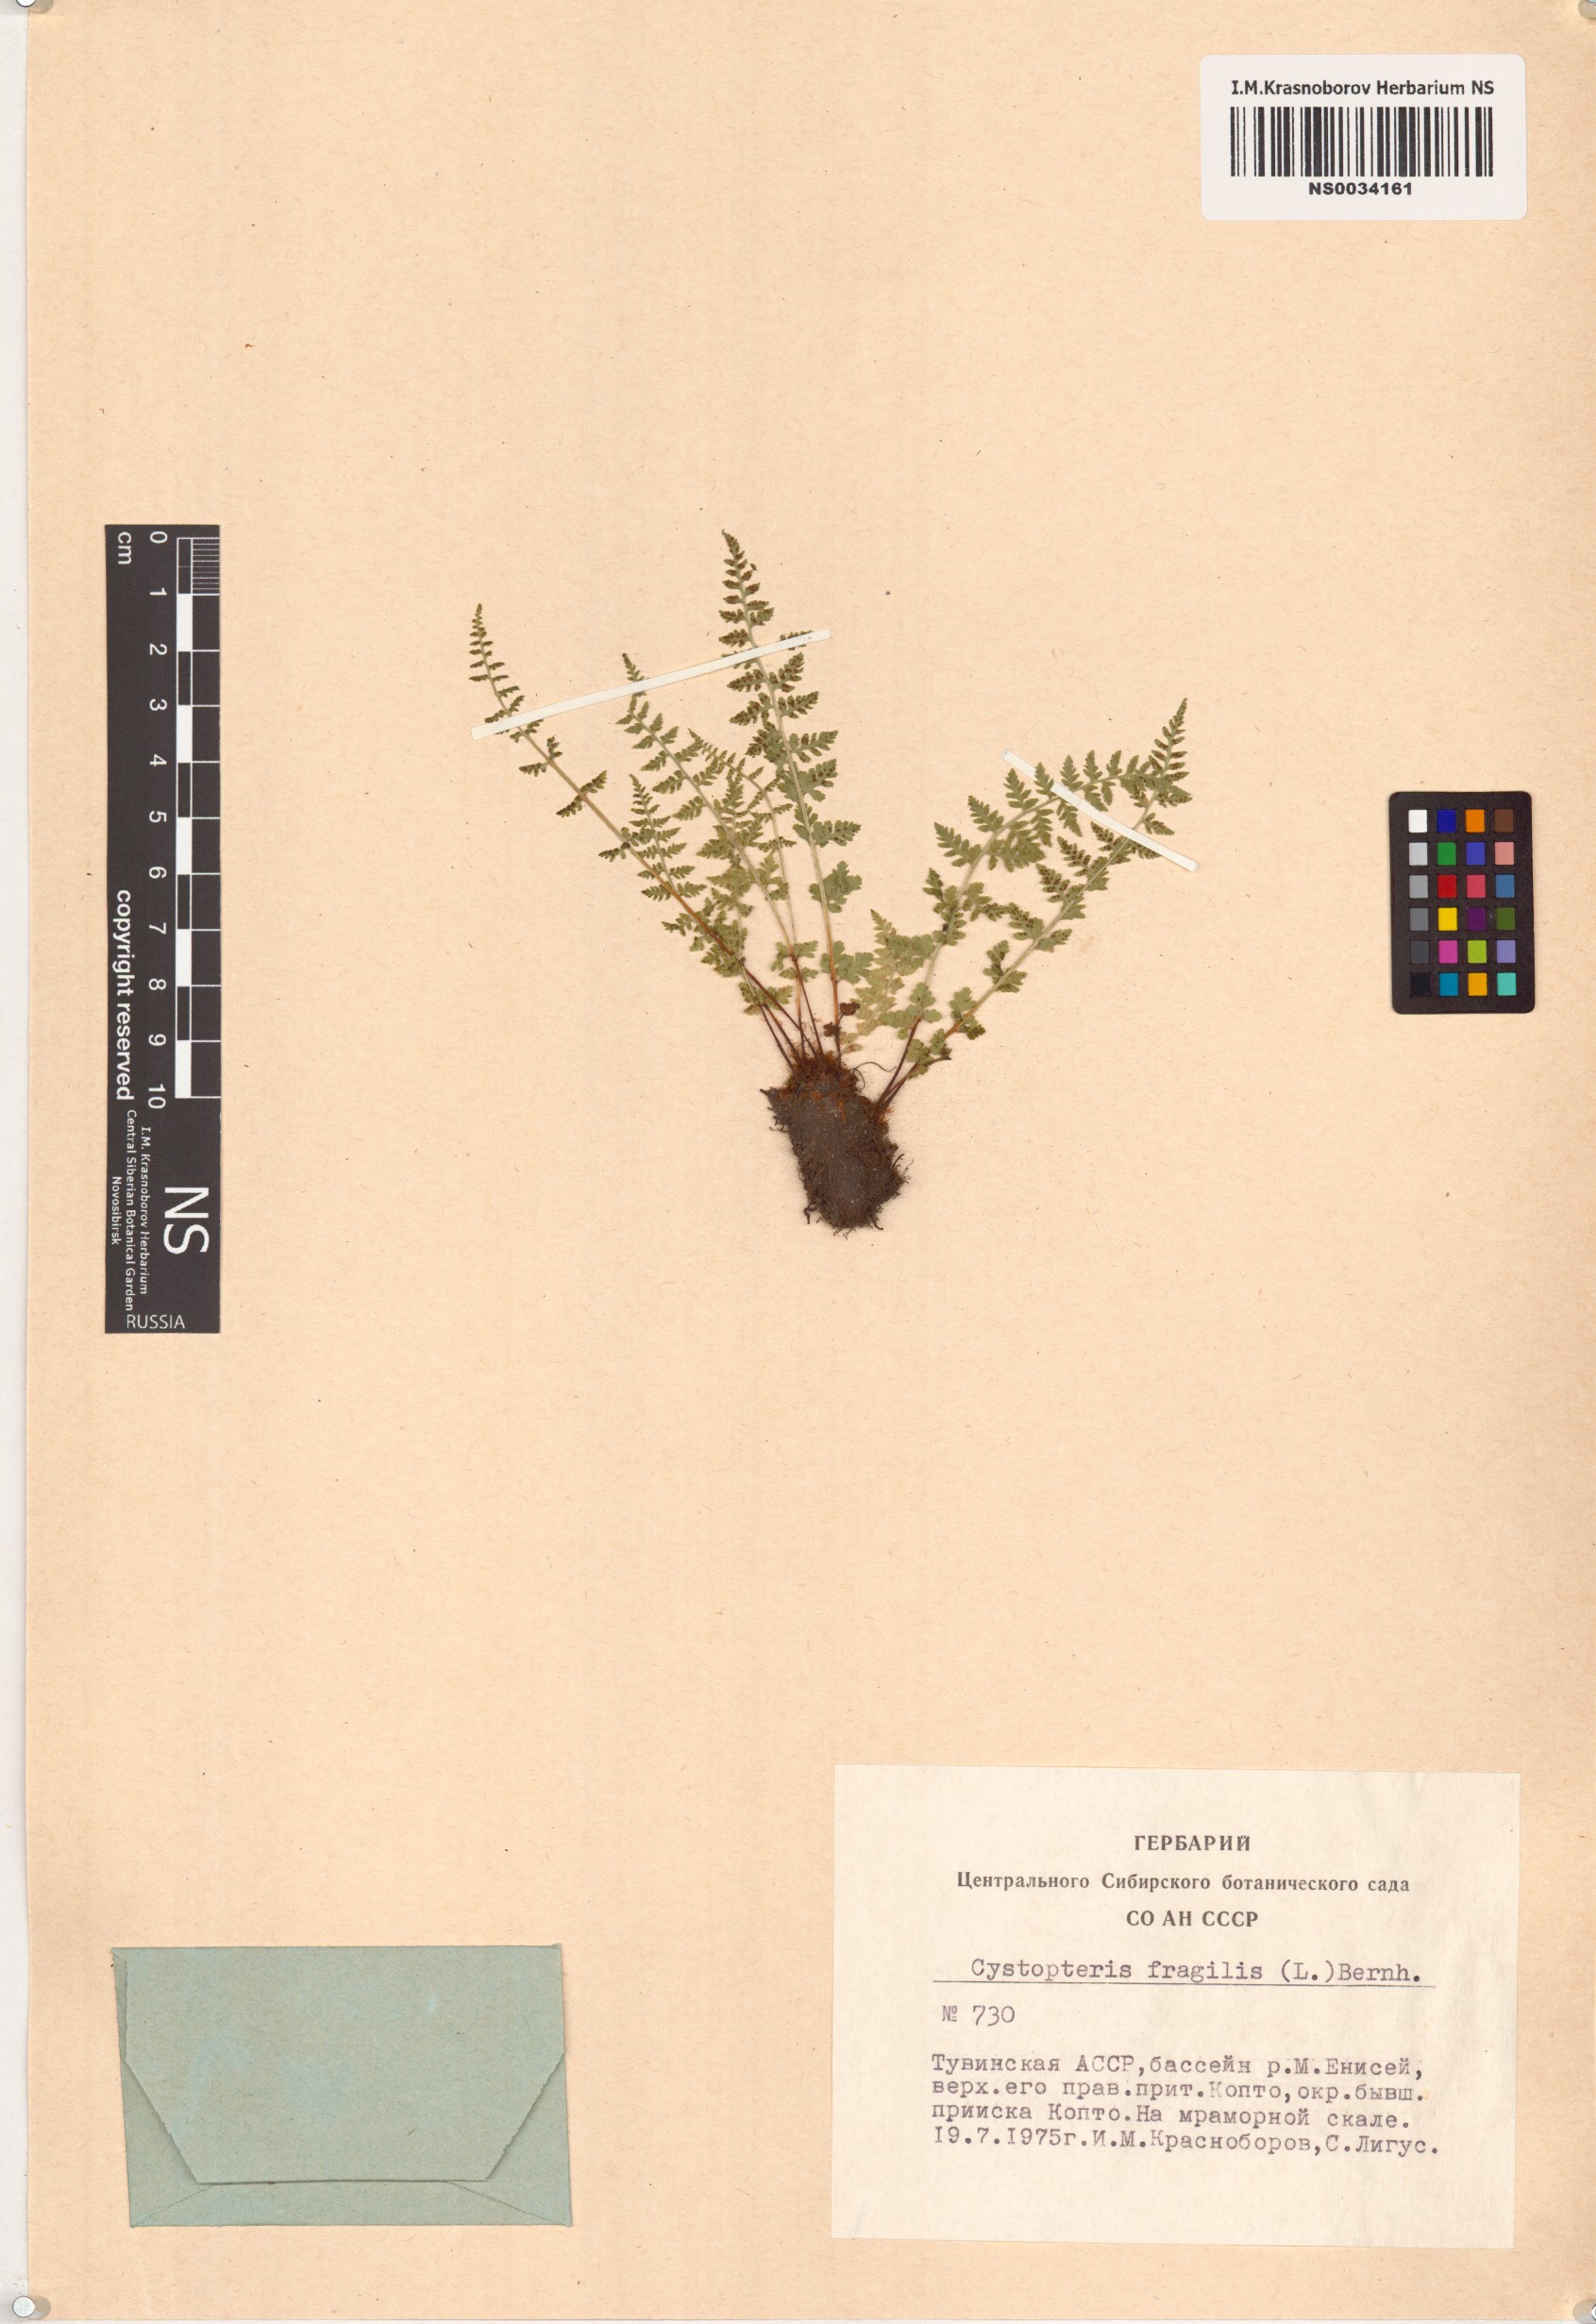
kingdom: Plantae
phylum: Tracheophyta
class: Polypodiopsida
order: Polypodiales
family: Cystopteridaceae
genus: Cystopteris
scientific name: Cystopteris fragilis
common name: Brittle bladder fern
